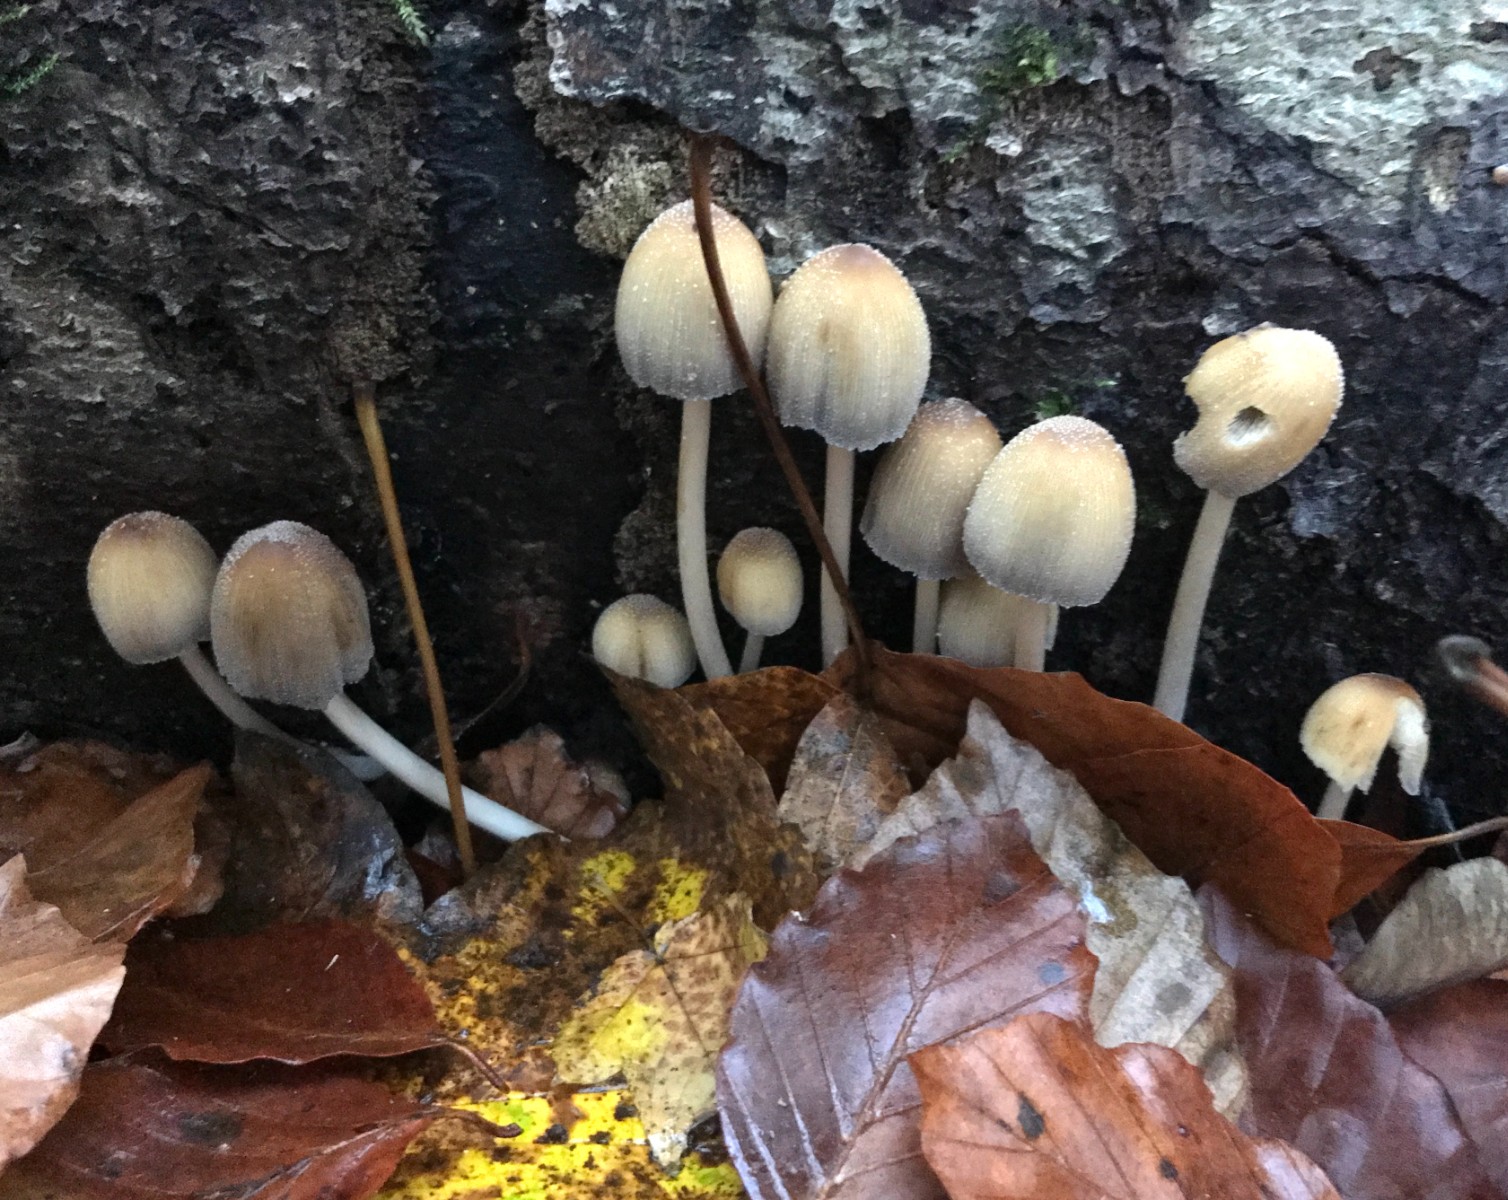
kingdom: Fungi
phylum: Basidiomycota
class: Agaricomycetes
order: Agaricales
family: Psathyrellaceae
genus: Coprinellus
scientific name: Coprinellus micaceus
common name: glimmer-blækhat
